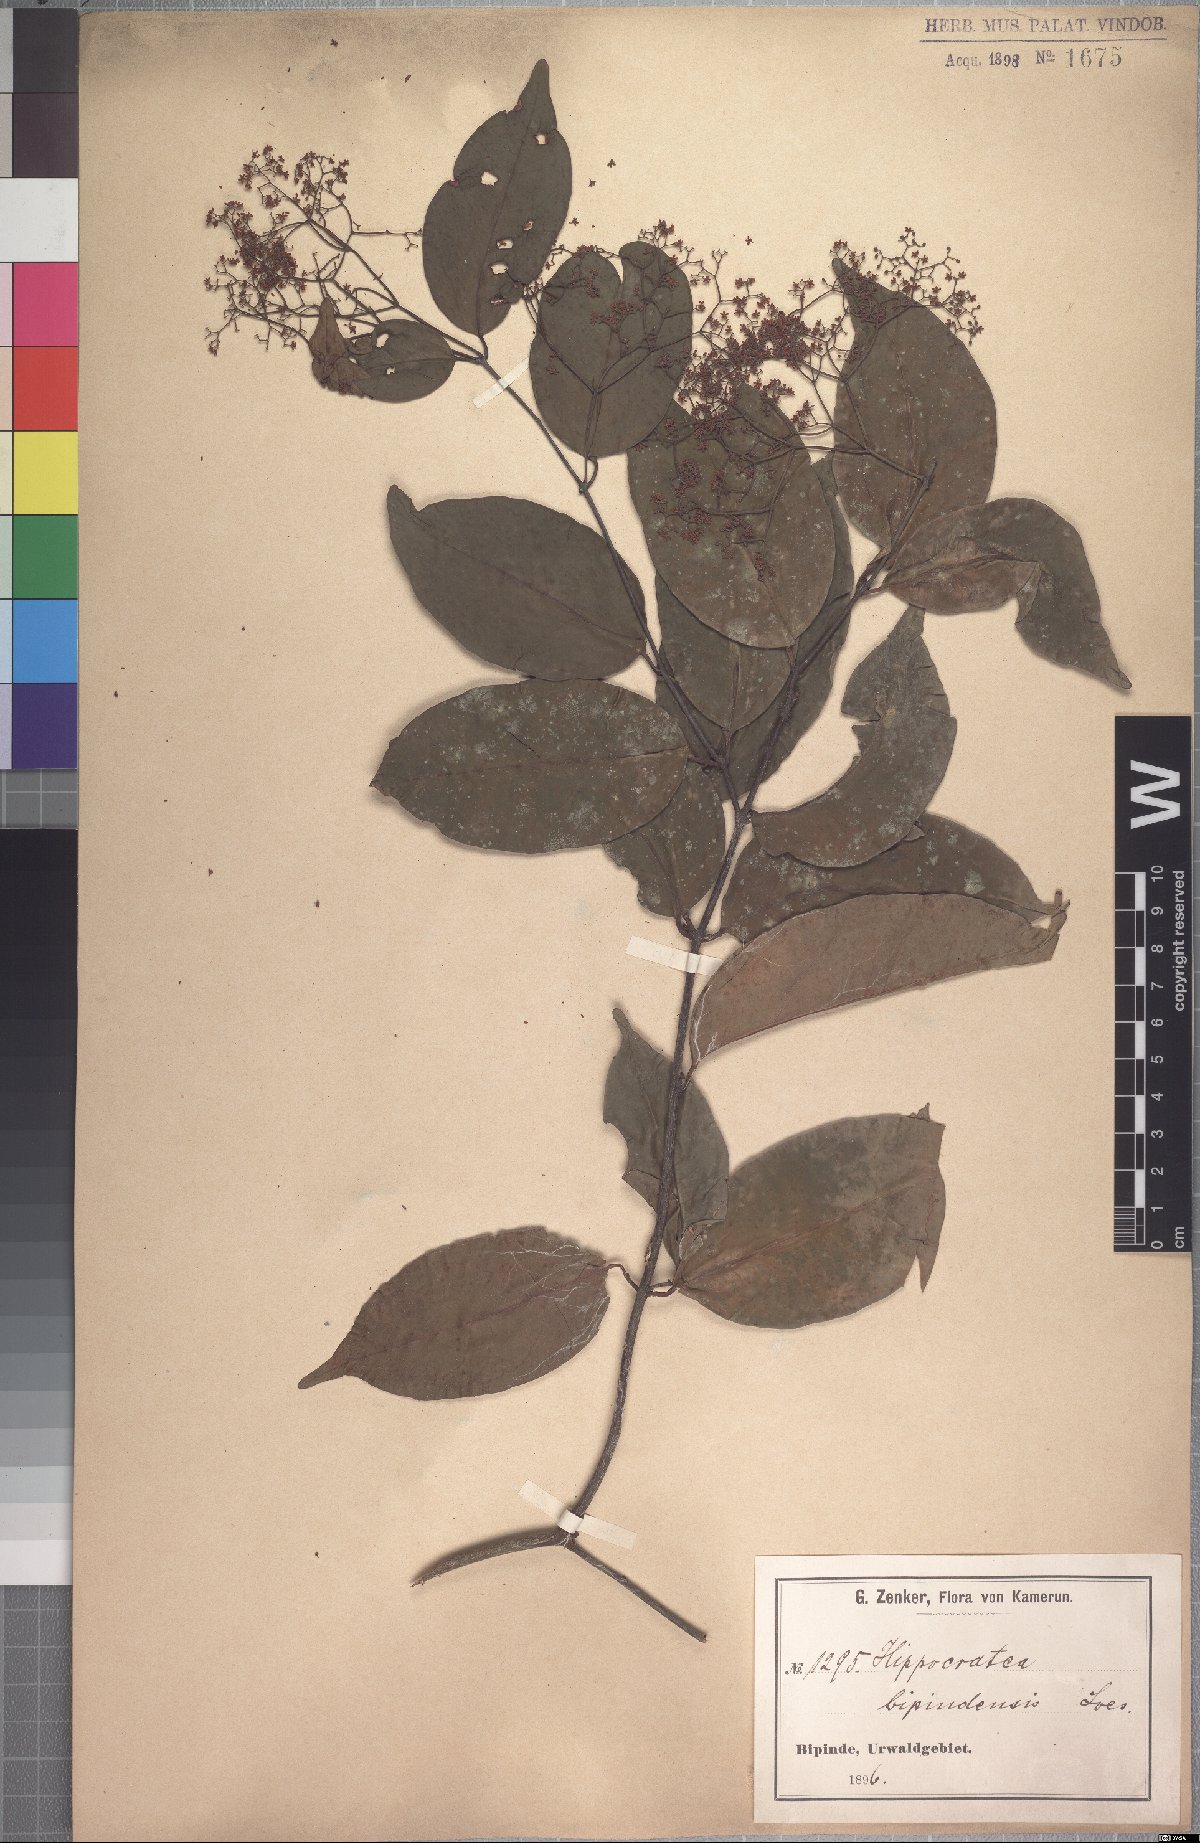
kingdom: Plantae
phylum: Tracheophyta
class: Magnoliopsida
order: Celastrales
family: Celastraceae
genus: Elachyptera
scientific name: Elachyptera bipindensis
